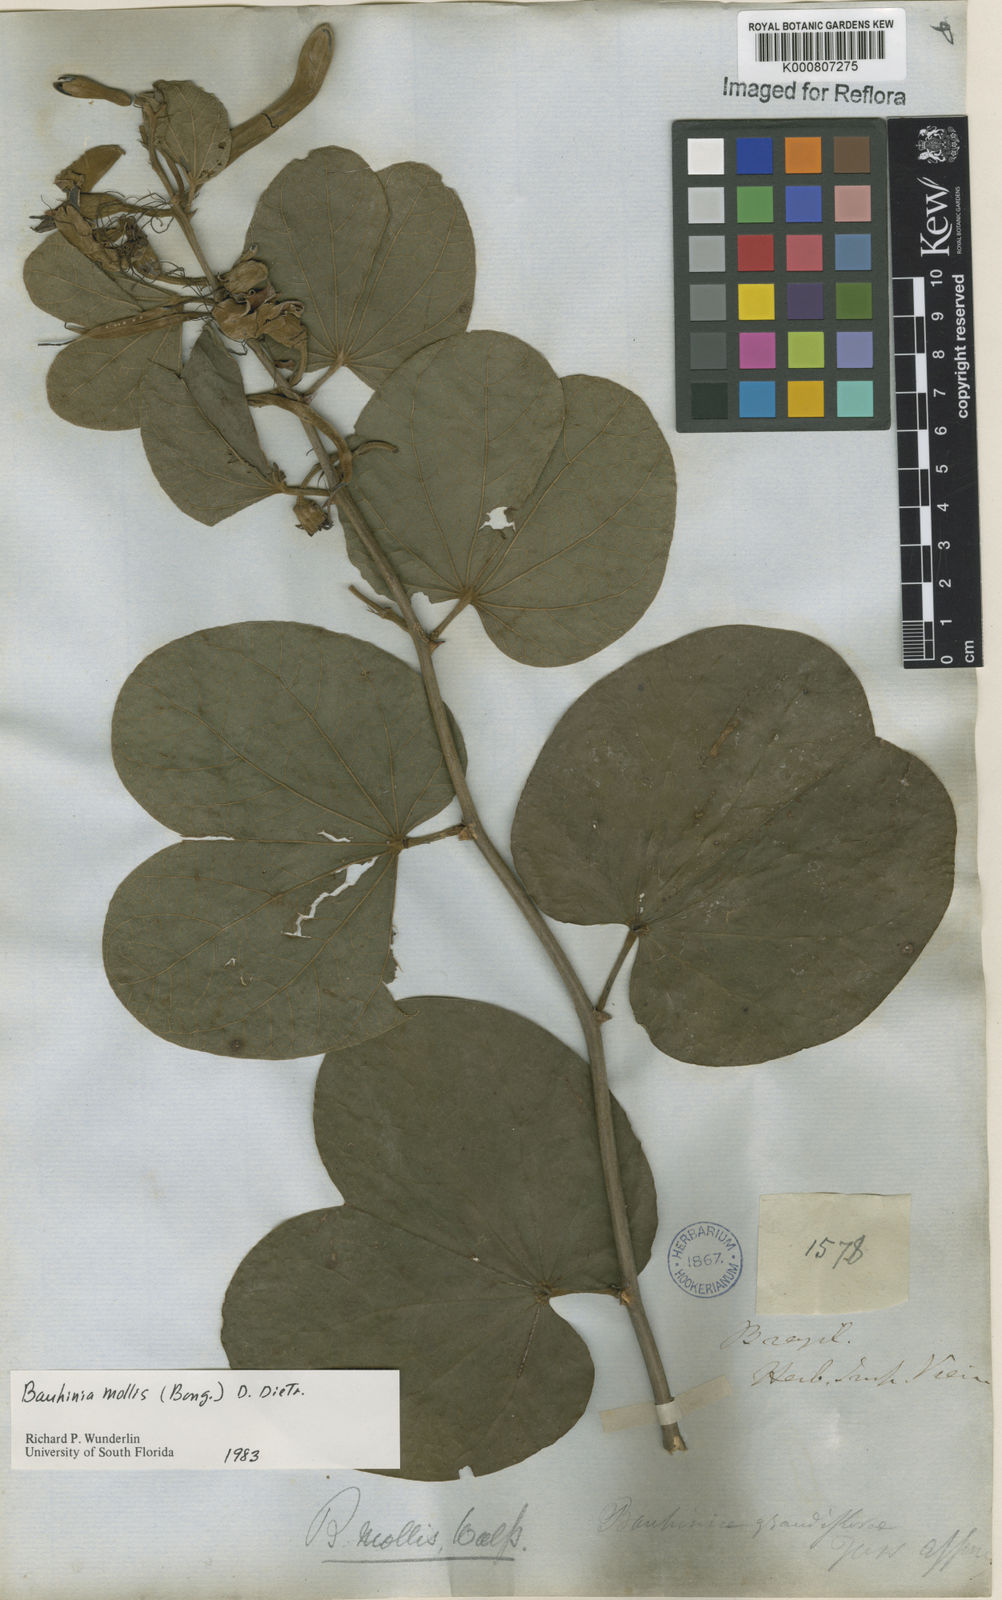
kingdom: Plantae
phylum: Tracheophyta
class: Magnoliopsida
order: Fabales
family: Fabaceae
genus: Bauhinia
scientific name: Bauhinia mollis
